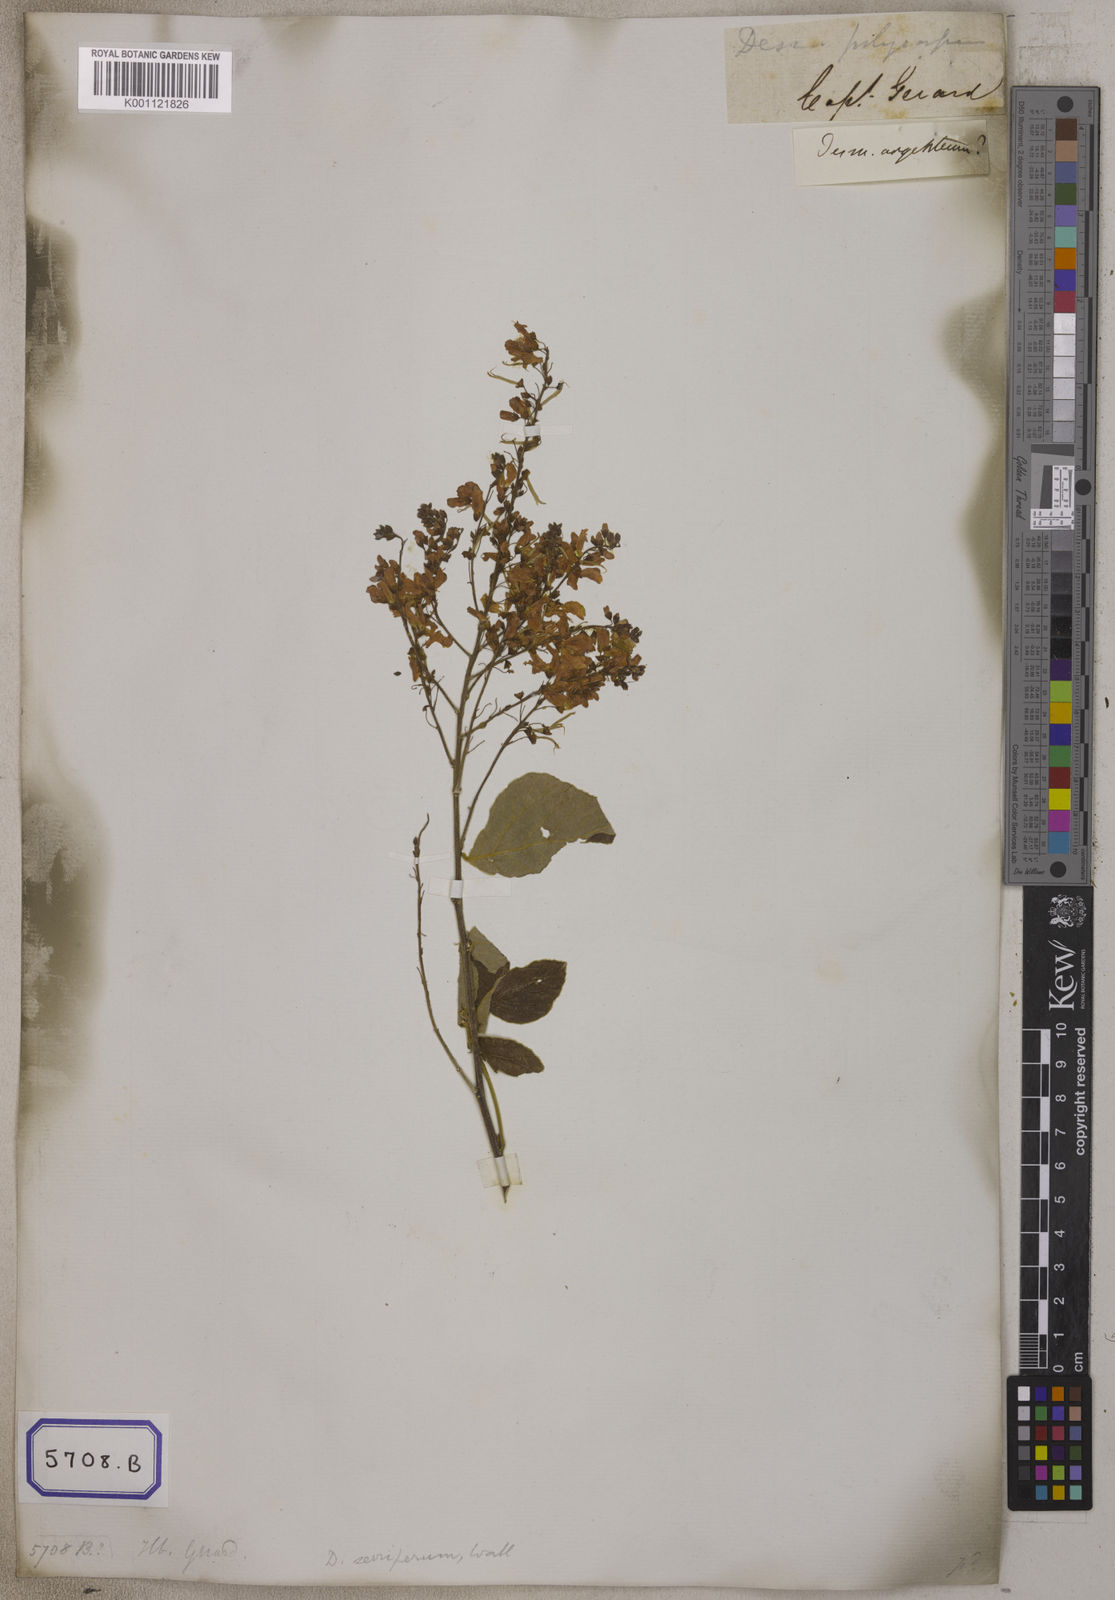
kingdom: Plantae
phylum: Tracheophyta
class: Magnoliopsida
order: Fabales
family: Fabaceae
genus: Desmodium
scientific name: Desmodium
